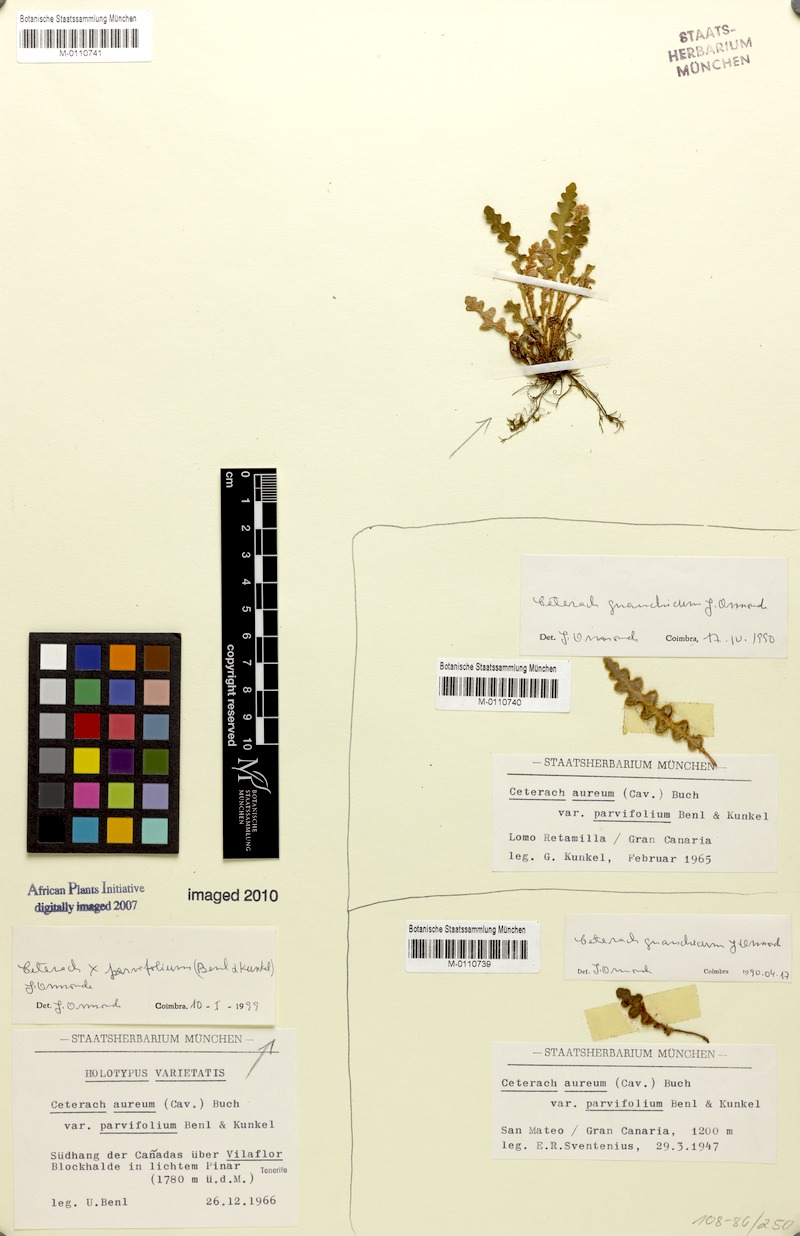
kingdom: Plantae
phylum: Tracheophyta
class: Polypodiopsida
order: Polypodiales
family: Aspleniaceae
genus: Asplenium
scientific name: Asplenium aureum
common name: Golden rustyback fern
